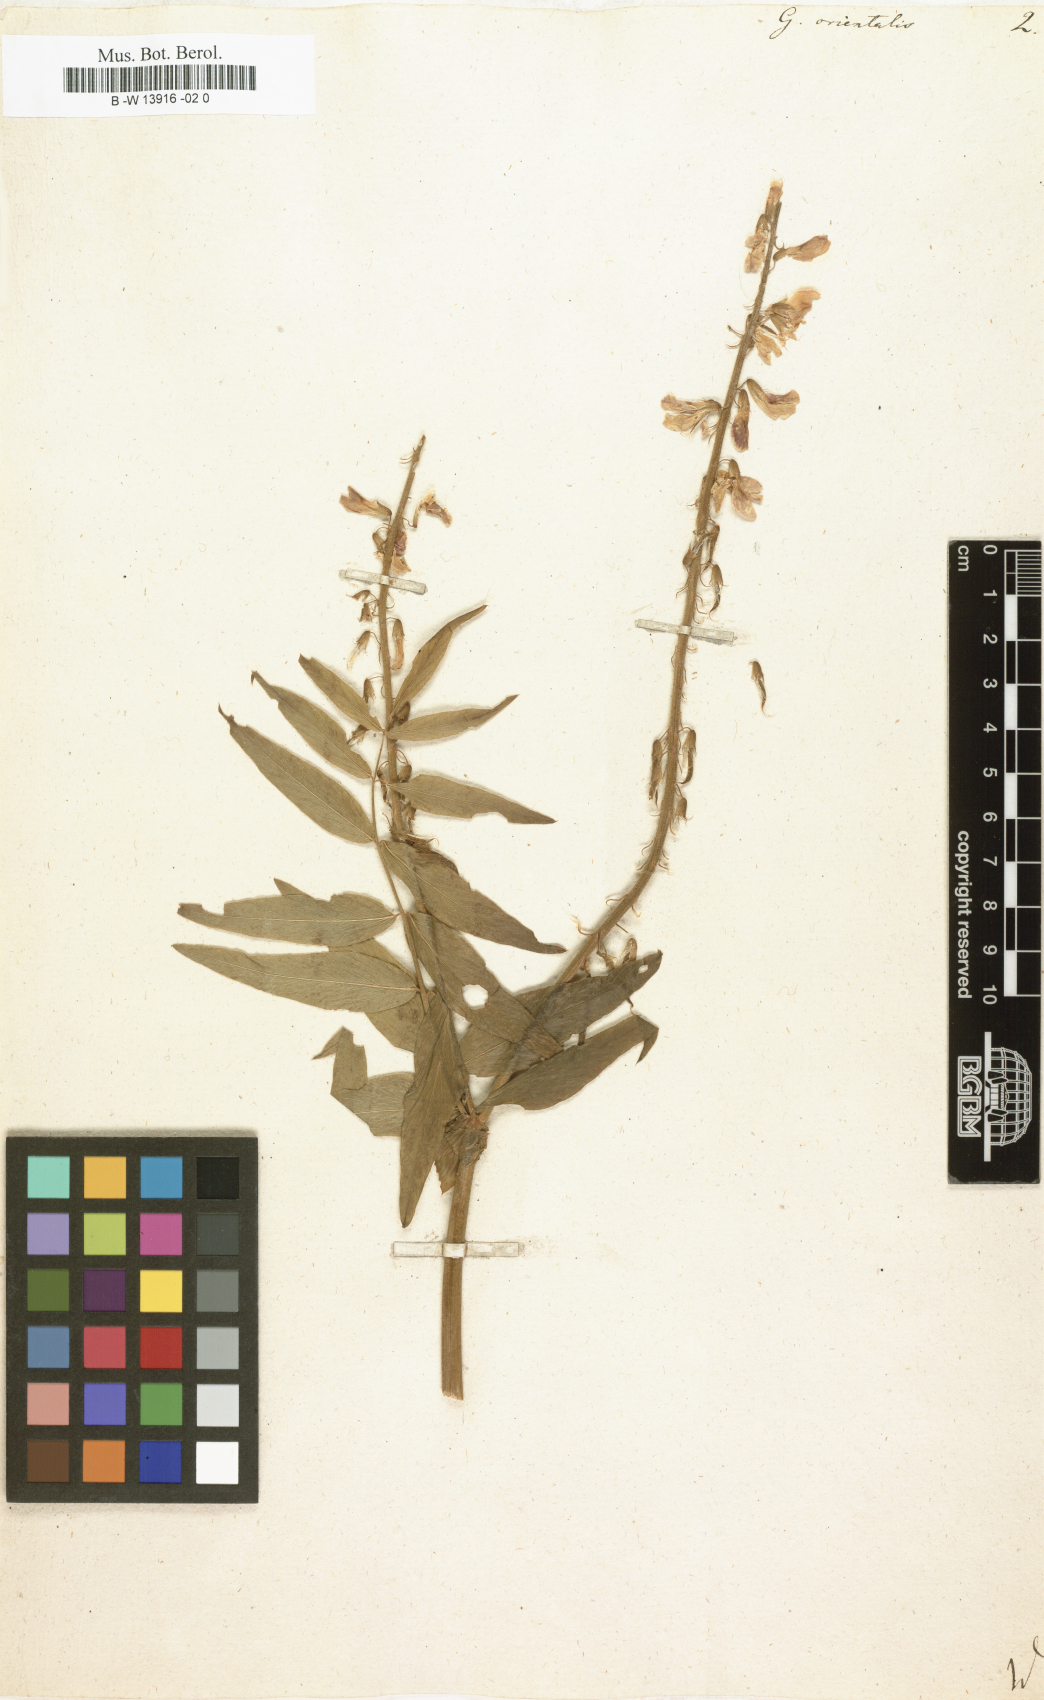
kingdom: Plantae
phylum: Tracheophyta
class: Magnoliopsida
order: Fabales
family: Fabaceae
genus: Galega
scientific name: Galega orientalis
